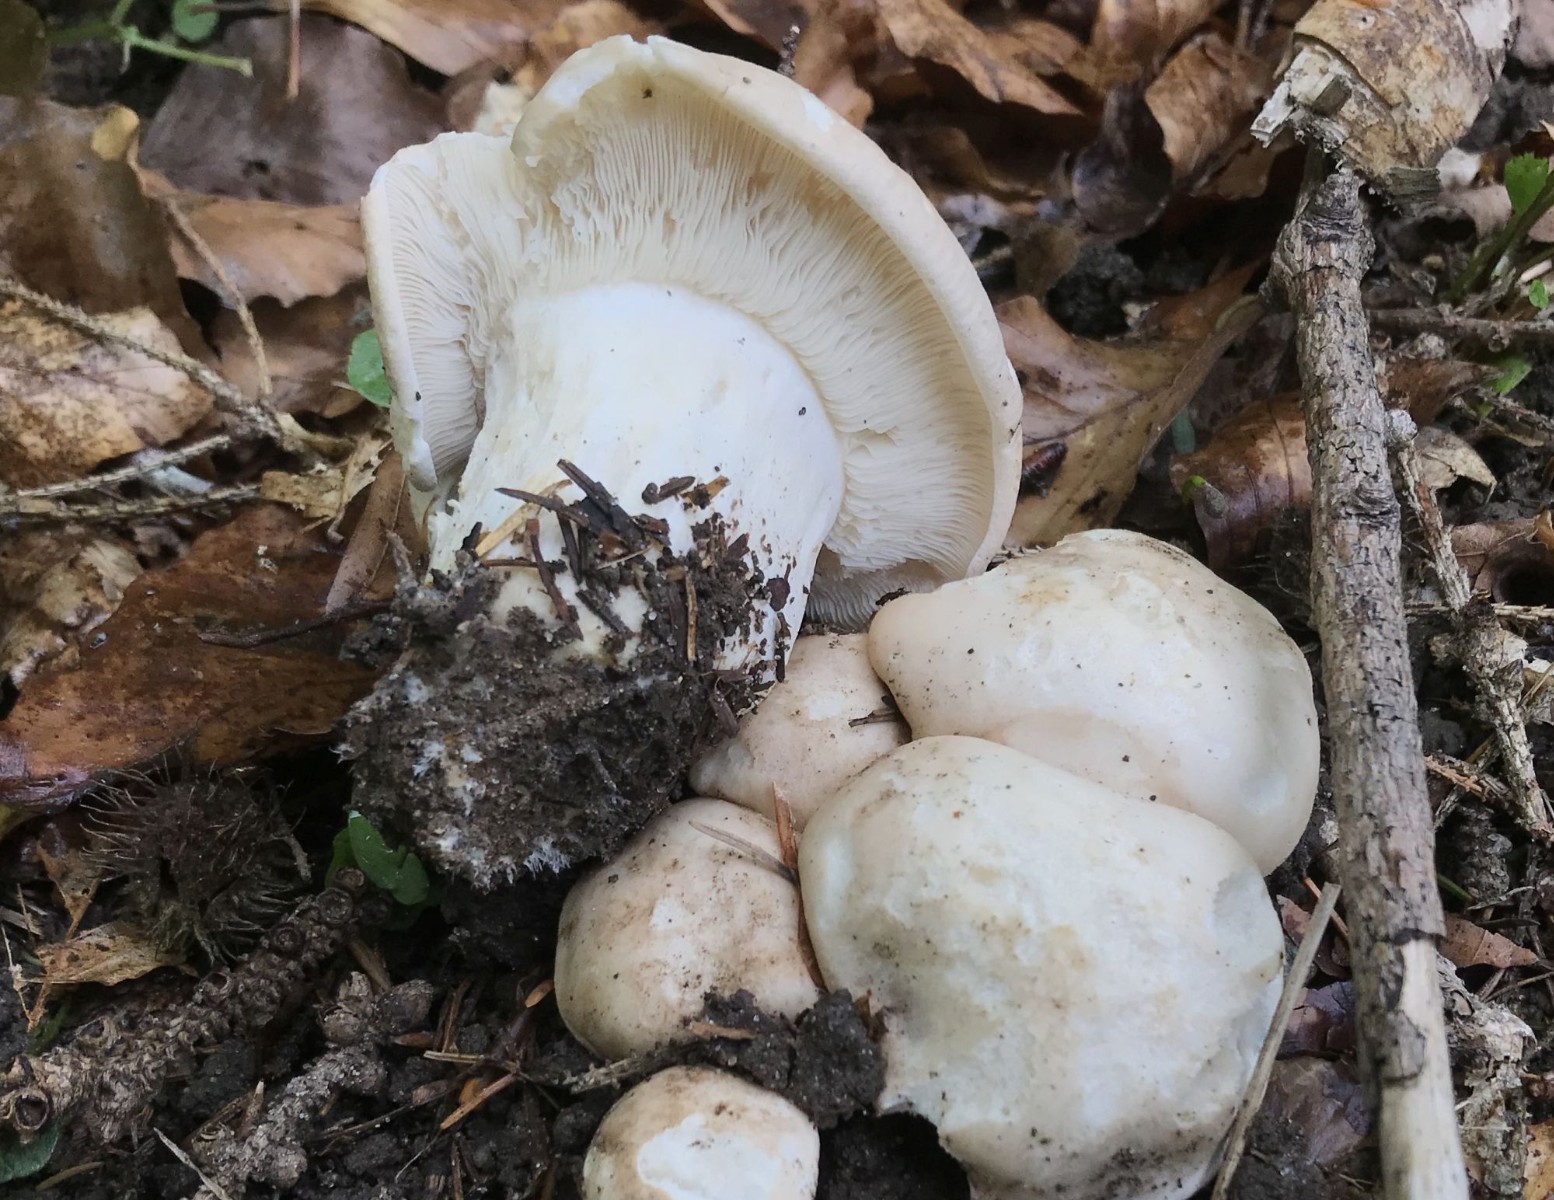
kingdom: Fungi
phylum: Basidiomycota
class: Agaricomycetes
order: Agaricales
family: Lyophyllaceae
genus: Calocybe
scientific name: Calocybe gambosa
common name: vårmusseron
